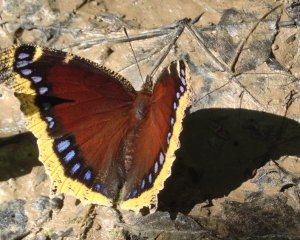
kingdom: Animalia
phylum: Arthropoda
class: Insecta
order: Lepidoptera
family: Nymphalidae
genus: Nymphalis
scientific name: Nymphalis antiopa
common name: Mourning Cloak
